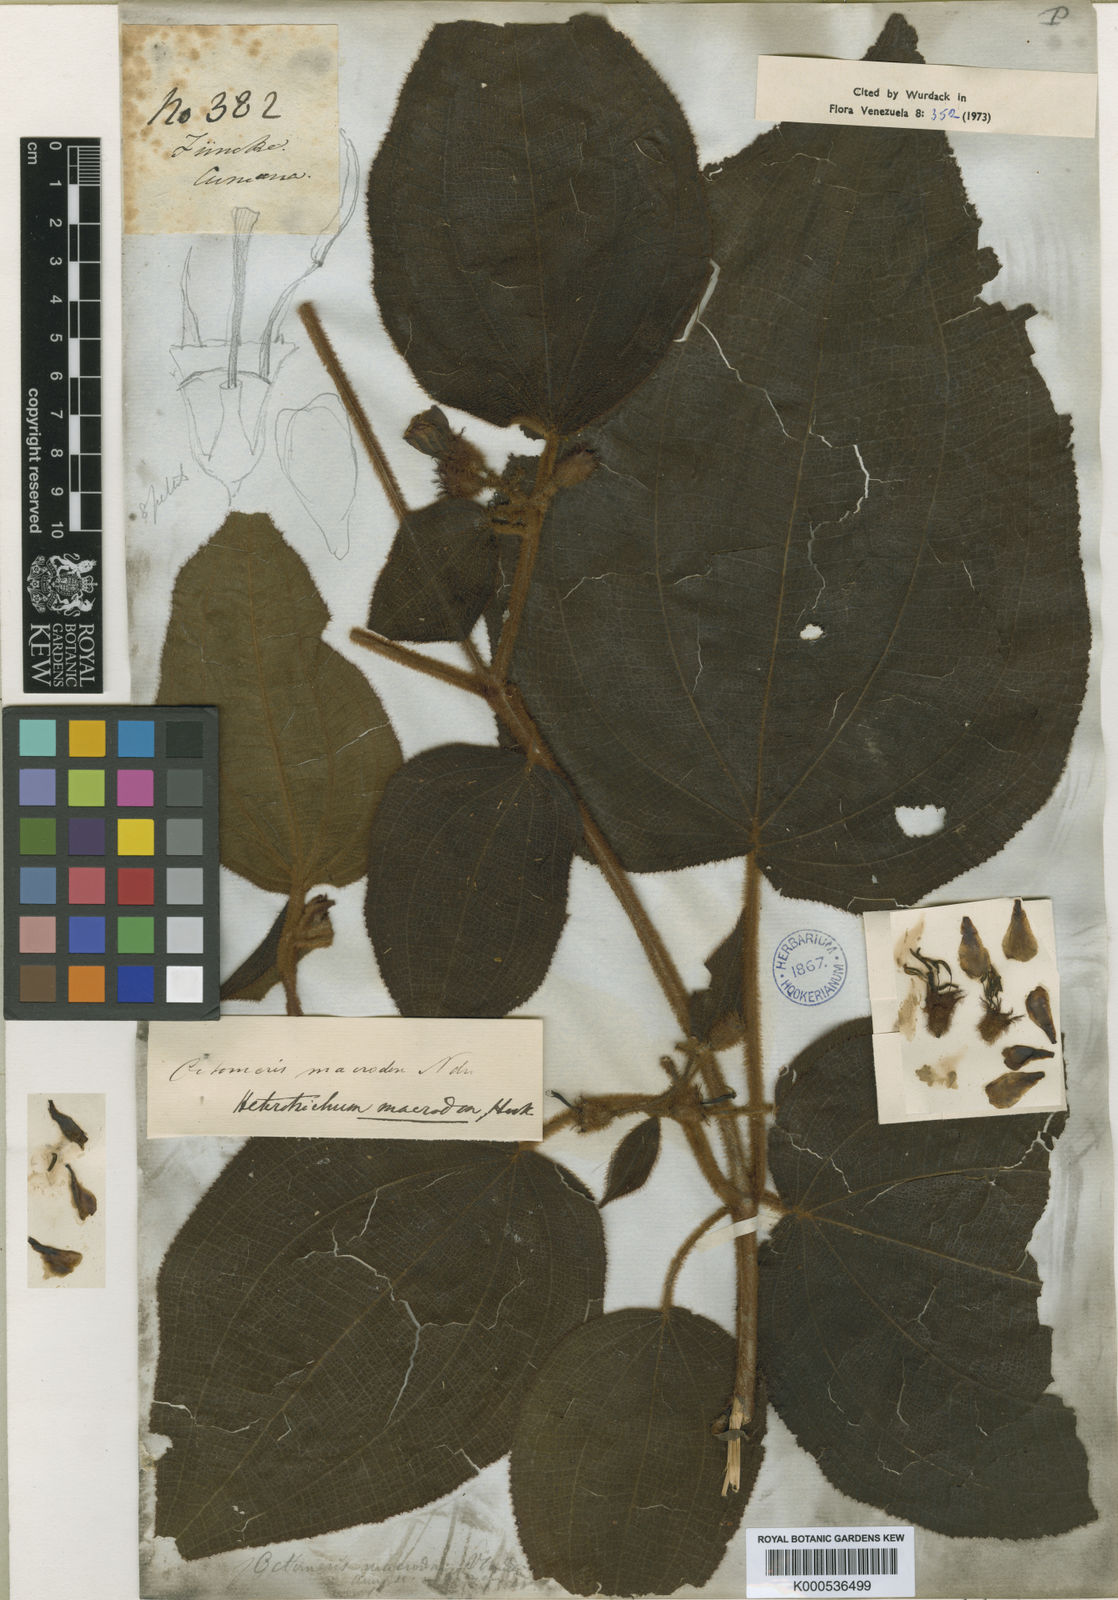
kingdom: Plantae
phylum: Tracheophyta
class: Magnoliopsida
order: Myrtales
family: Melastomataceae
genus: Miconia
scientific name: Miconia macrodon
